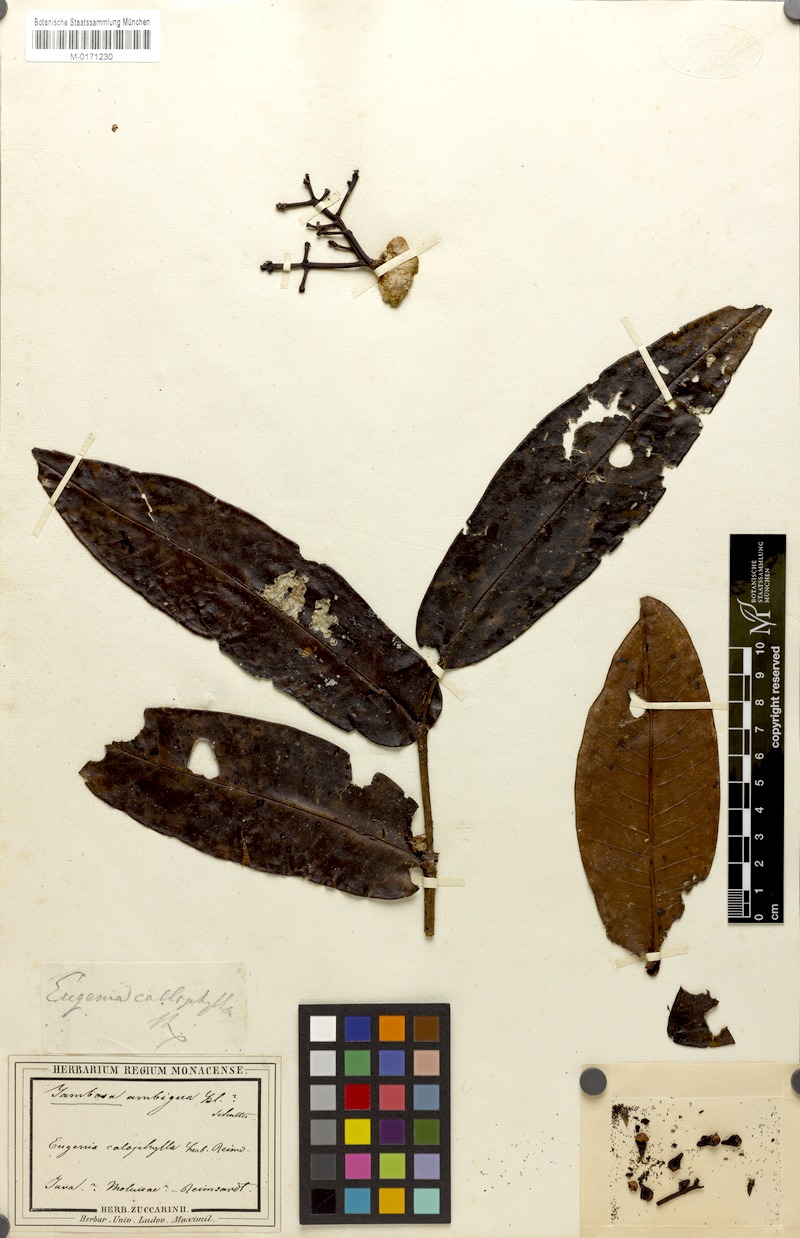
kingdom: Plantae
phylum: Tracheophyta
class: Magnoliopsida
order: Myrtales
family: Myrtaceae
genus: Syzygium
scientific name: Syzygium aqueum
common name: Water-apple
